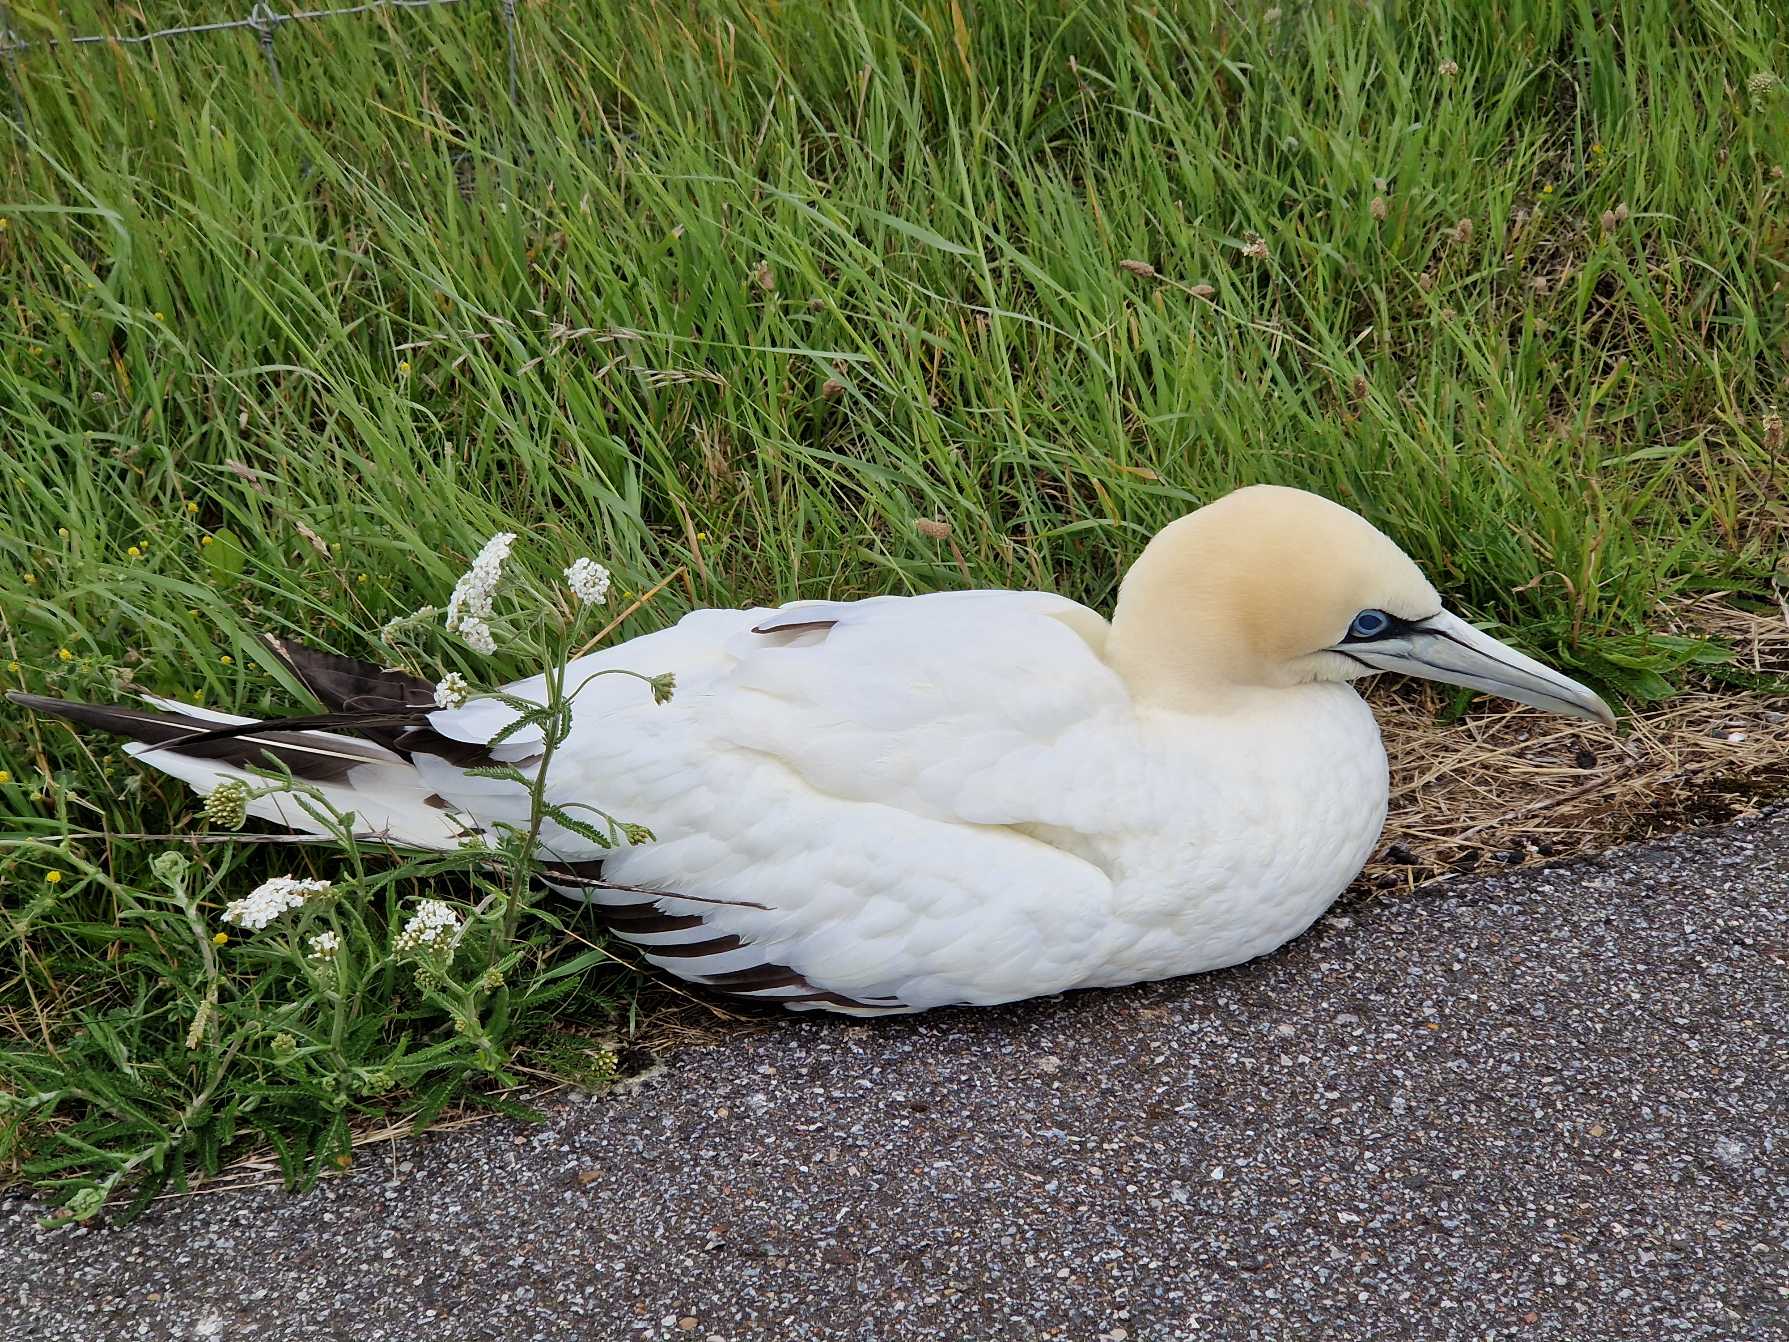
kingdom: Animalia
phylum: Chordata
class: Aves
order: Suliformes
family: Sulidae
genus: Morus
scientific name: Morus bassanus
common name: Sule
